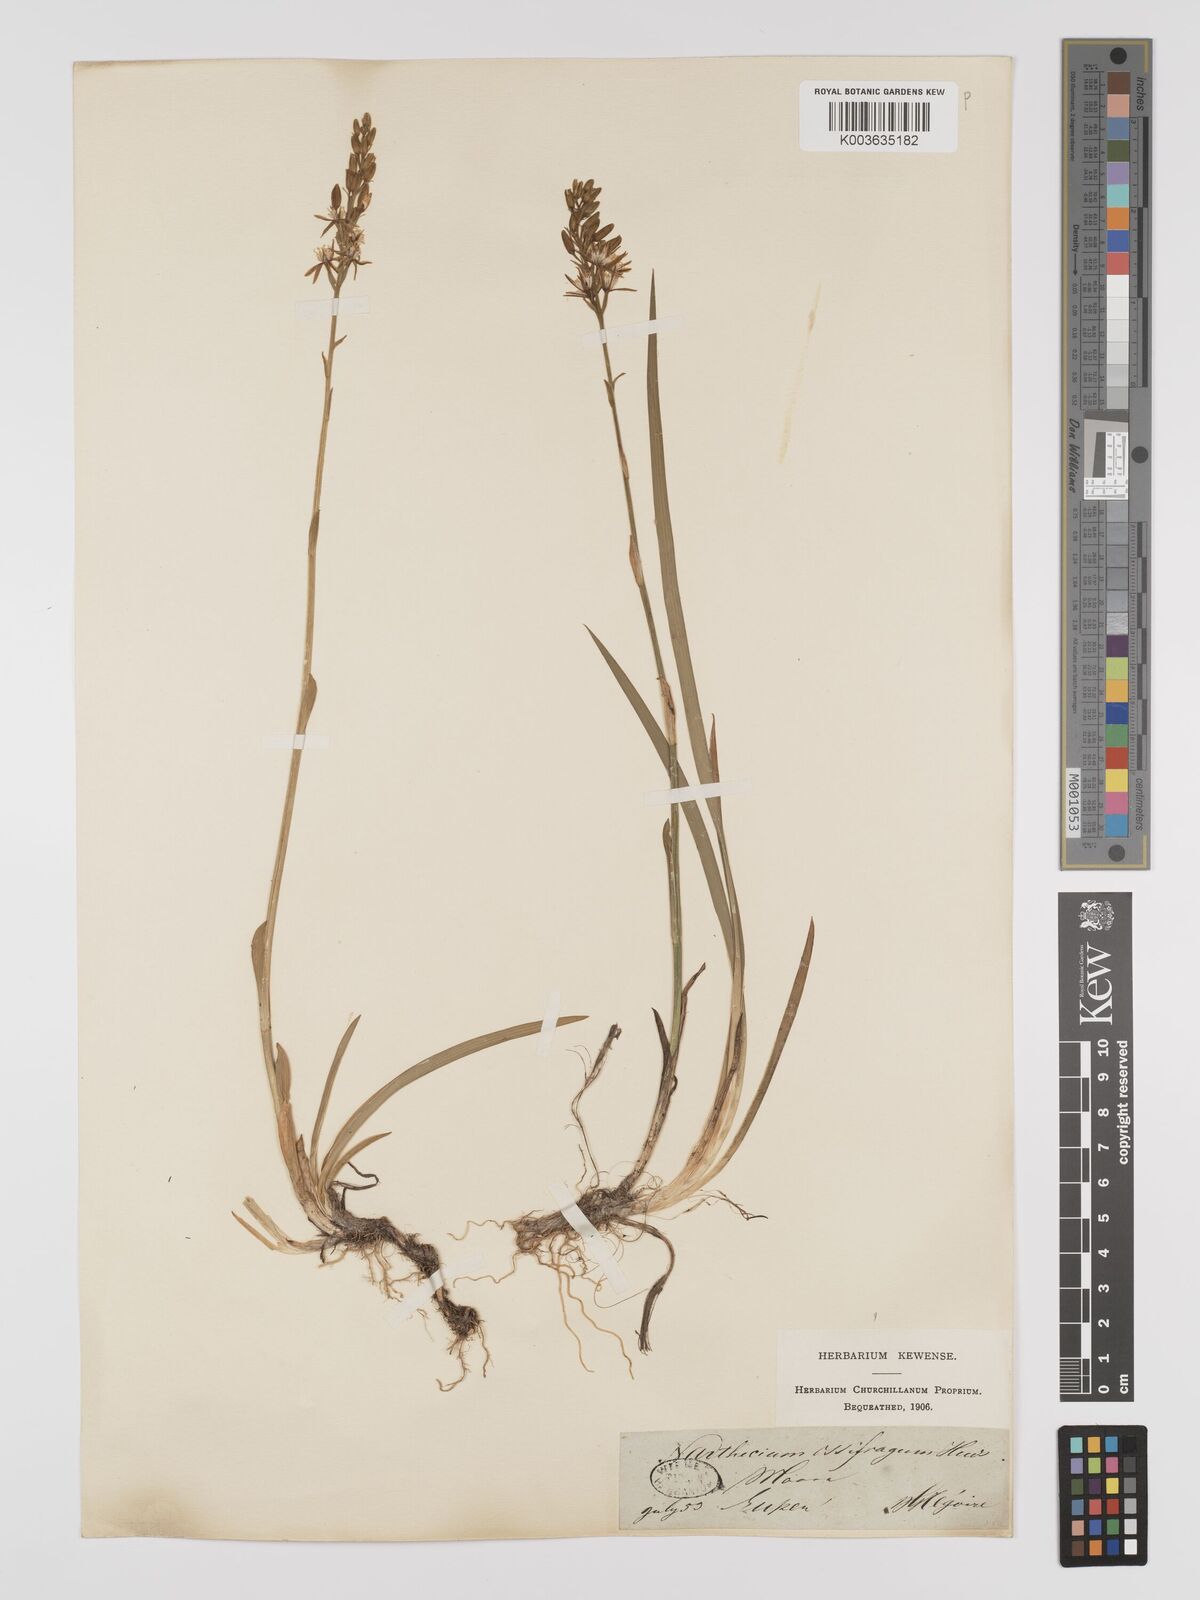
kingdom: Plantae
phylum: Tracheophyta
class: Liliopsida
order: Dioscoreales
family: Nartheciaceae
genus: Narthecium
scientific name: Narthecium ossifragum
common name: Bog asphodel
